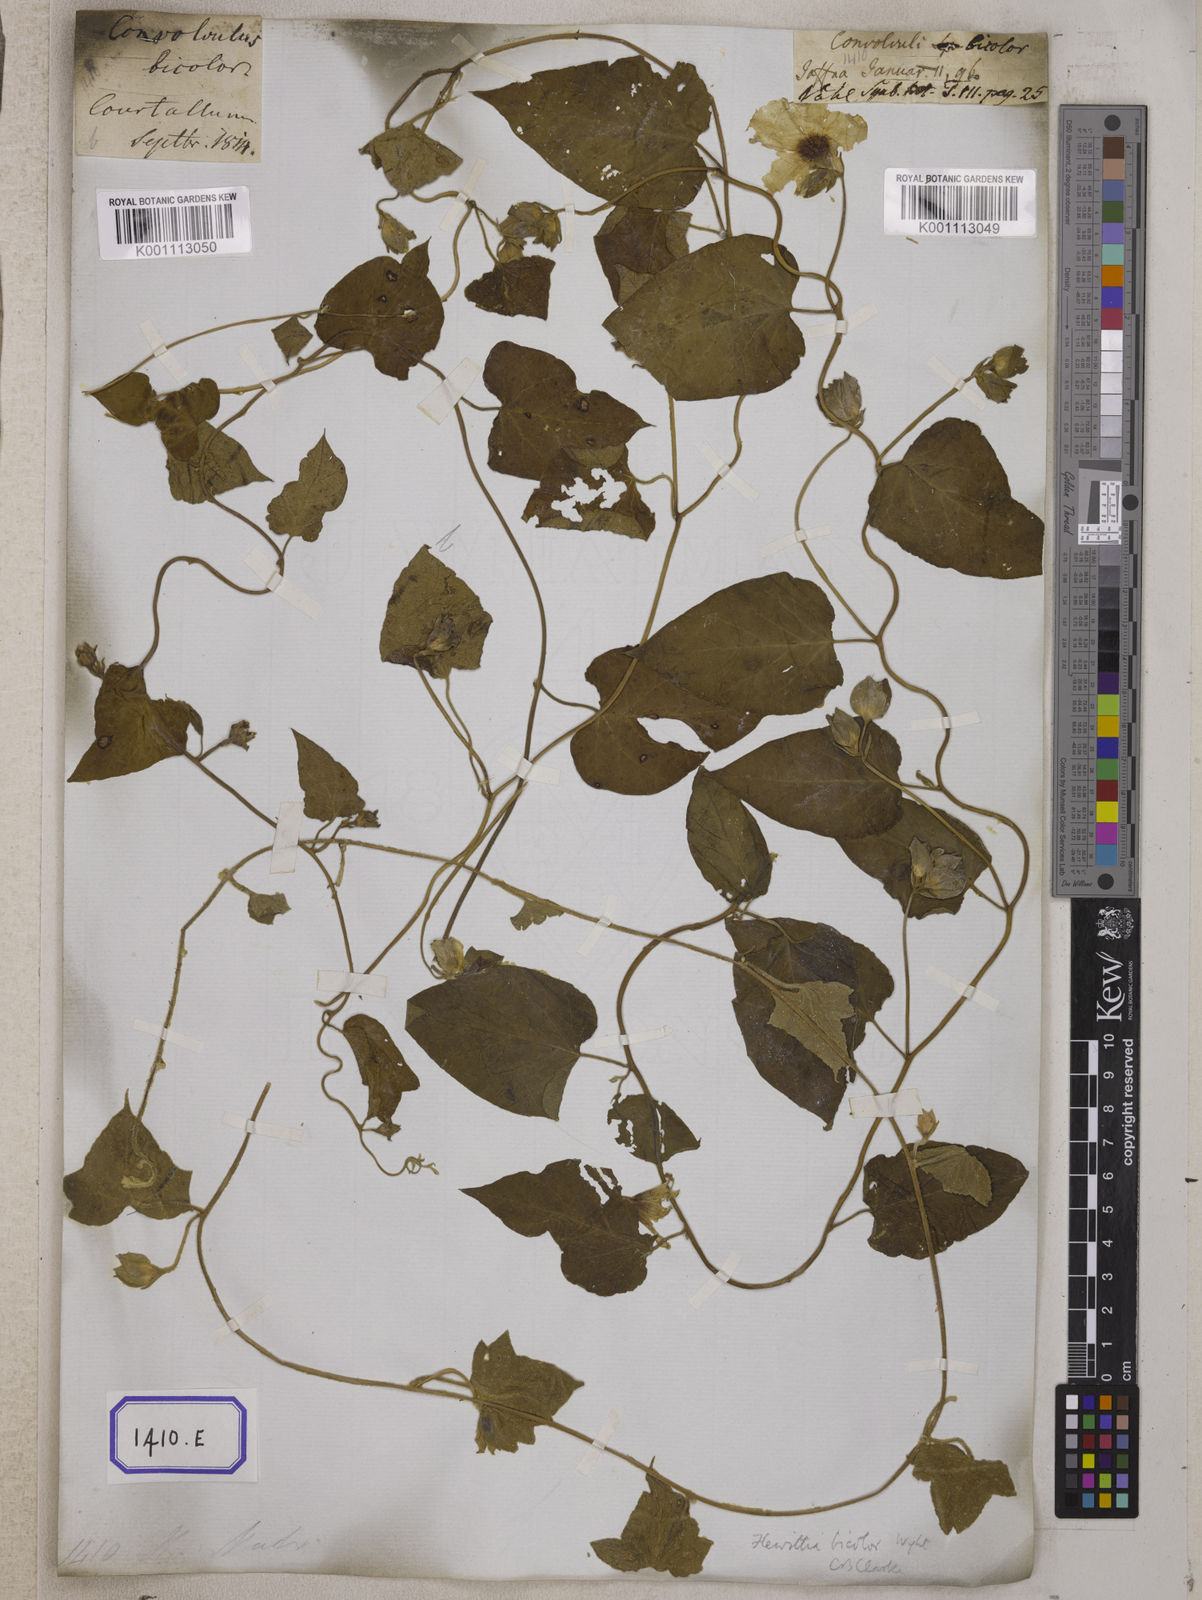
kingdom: Plantae
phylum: Tracheophyta
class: Magnoliopsida
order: Solanales
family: Convolvulaceae
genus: Convolvulus
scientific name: Convolvulus
